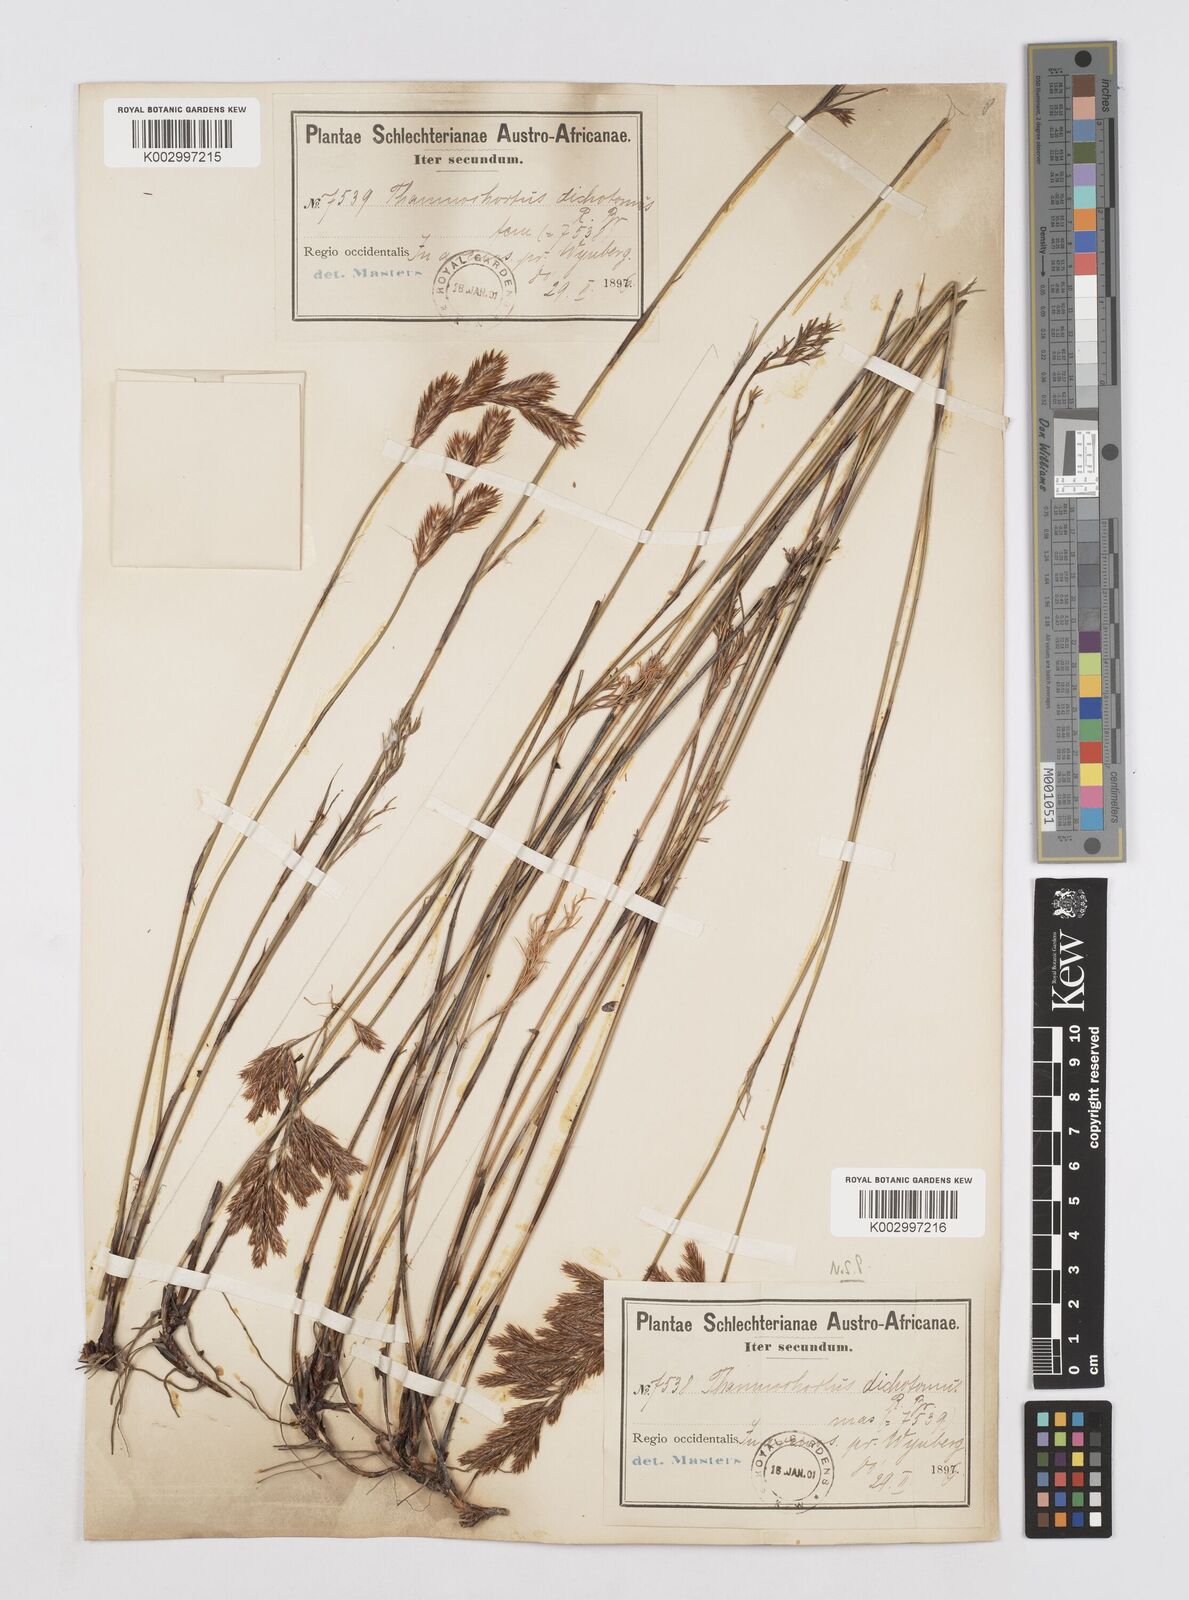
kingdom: Plantae
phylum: Tracheophyta
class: Liliopsida
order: Poales
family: Restionaceae
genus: Thamnochortus
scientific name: Thamnochortus punctatus
